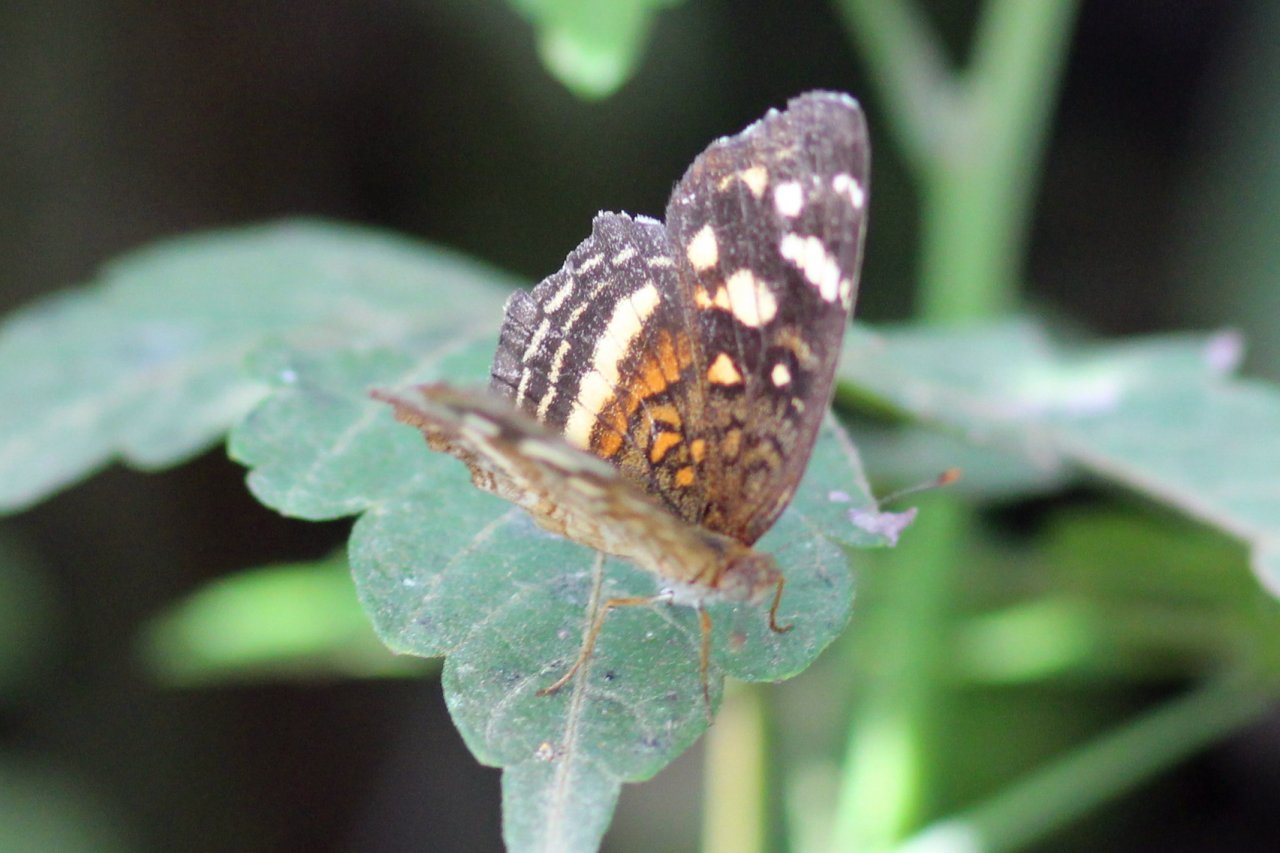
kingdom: Animalia
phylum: Arthropoda
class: Insecta
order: Lepidoptera
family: Nymphalidae
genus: Anthanassa
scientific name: Anthanassa drusilla
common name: Orange-patched Crescent
